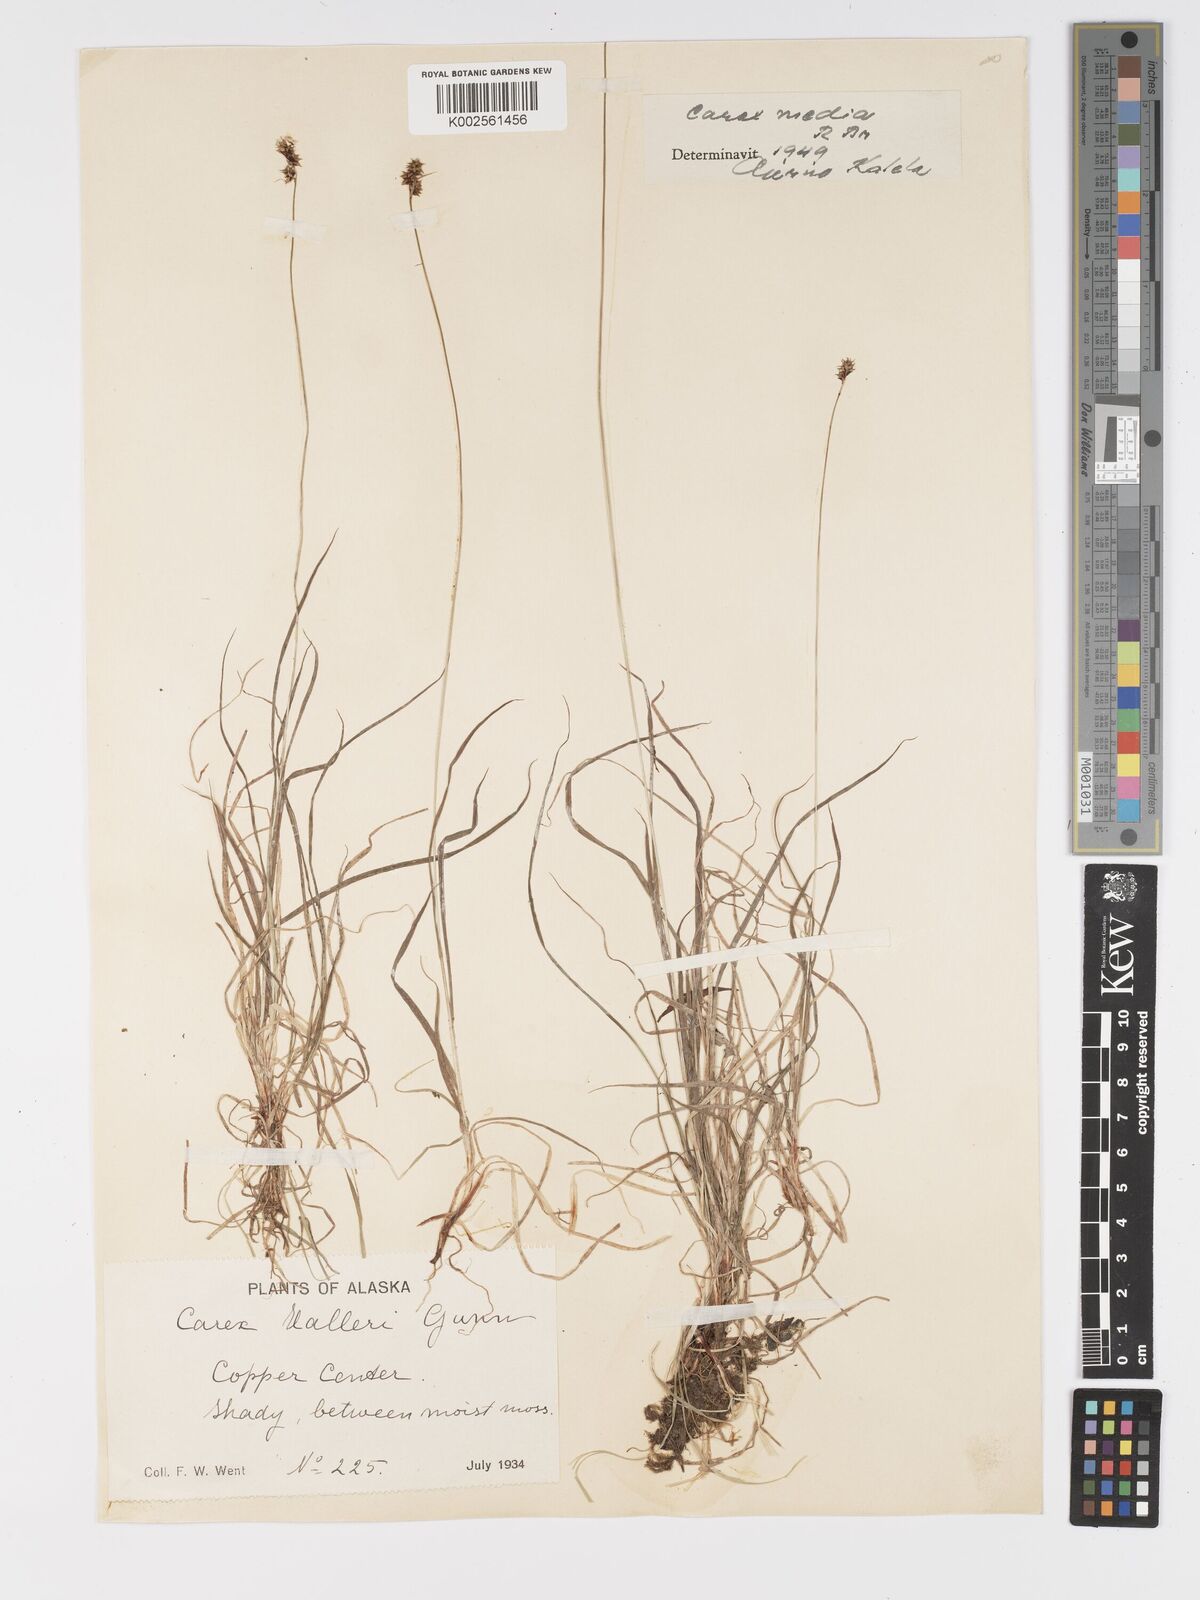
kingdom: Plantae
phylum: Tracheophyta
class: Liliopsida
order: Poales
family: Cyperaceae
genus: Carex
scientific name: Carex media
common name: Alpine sedge
